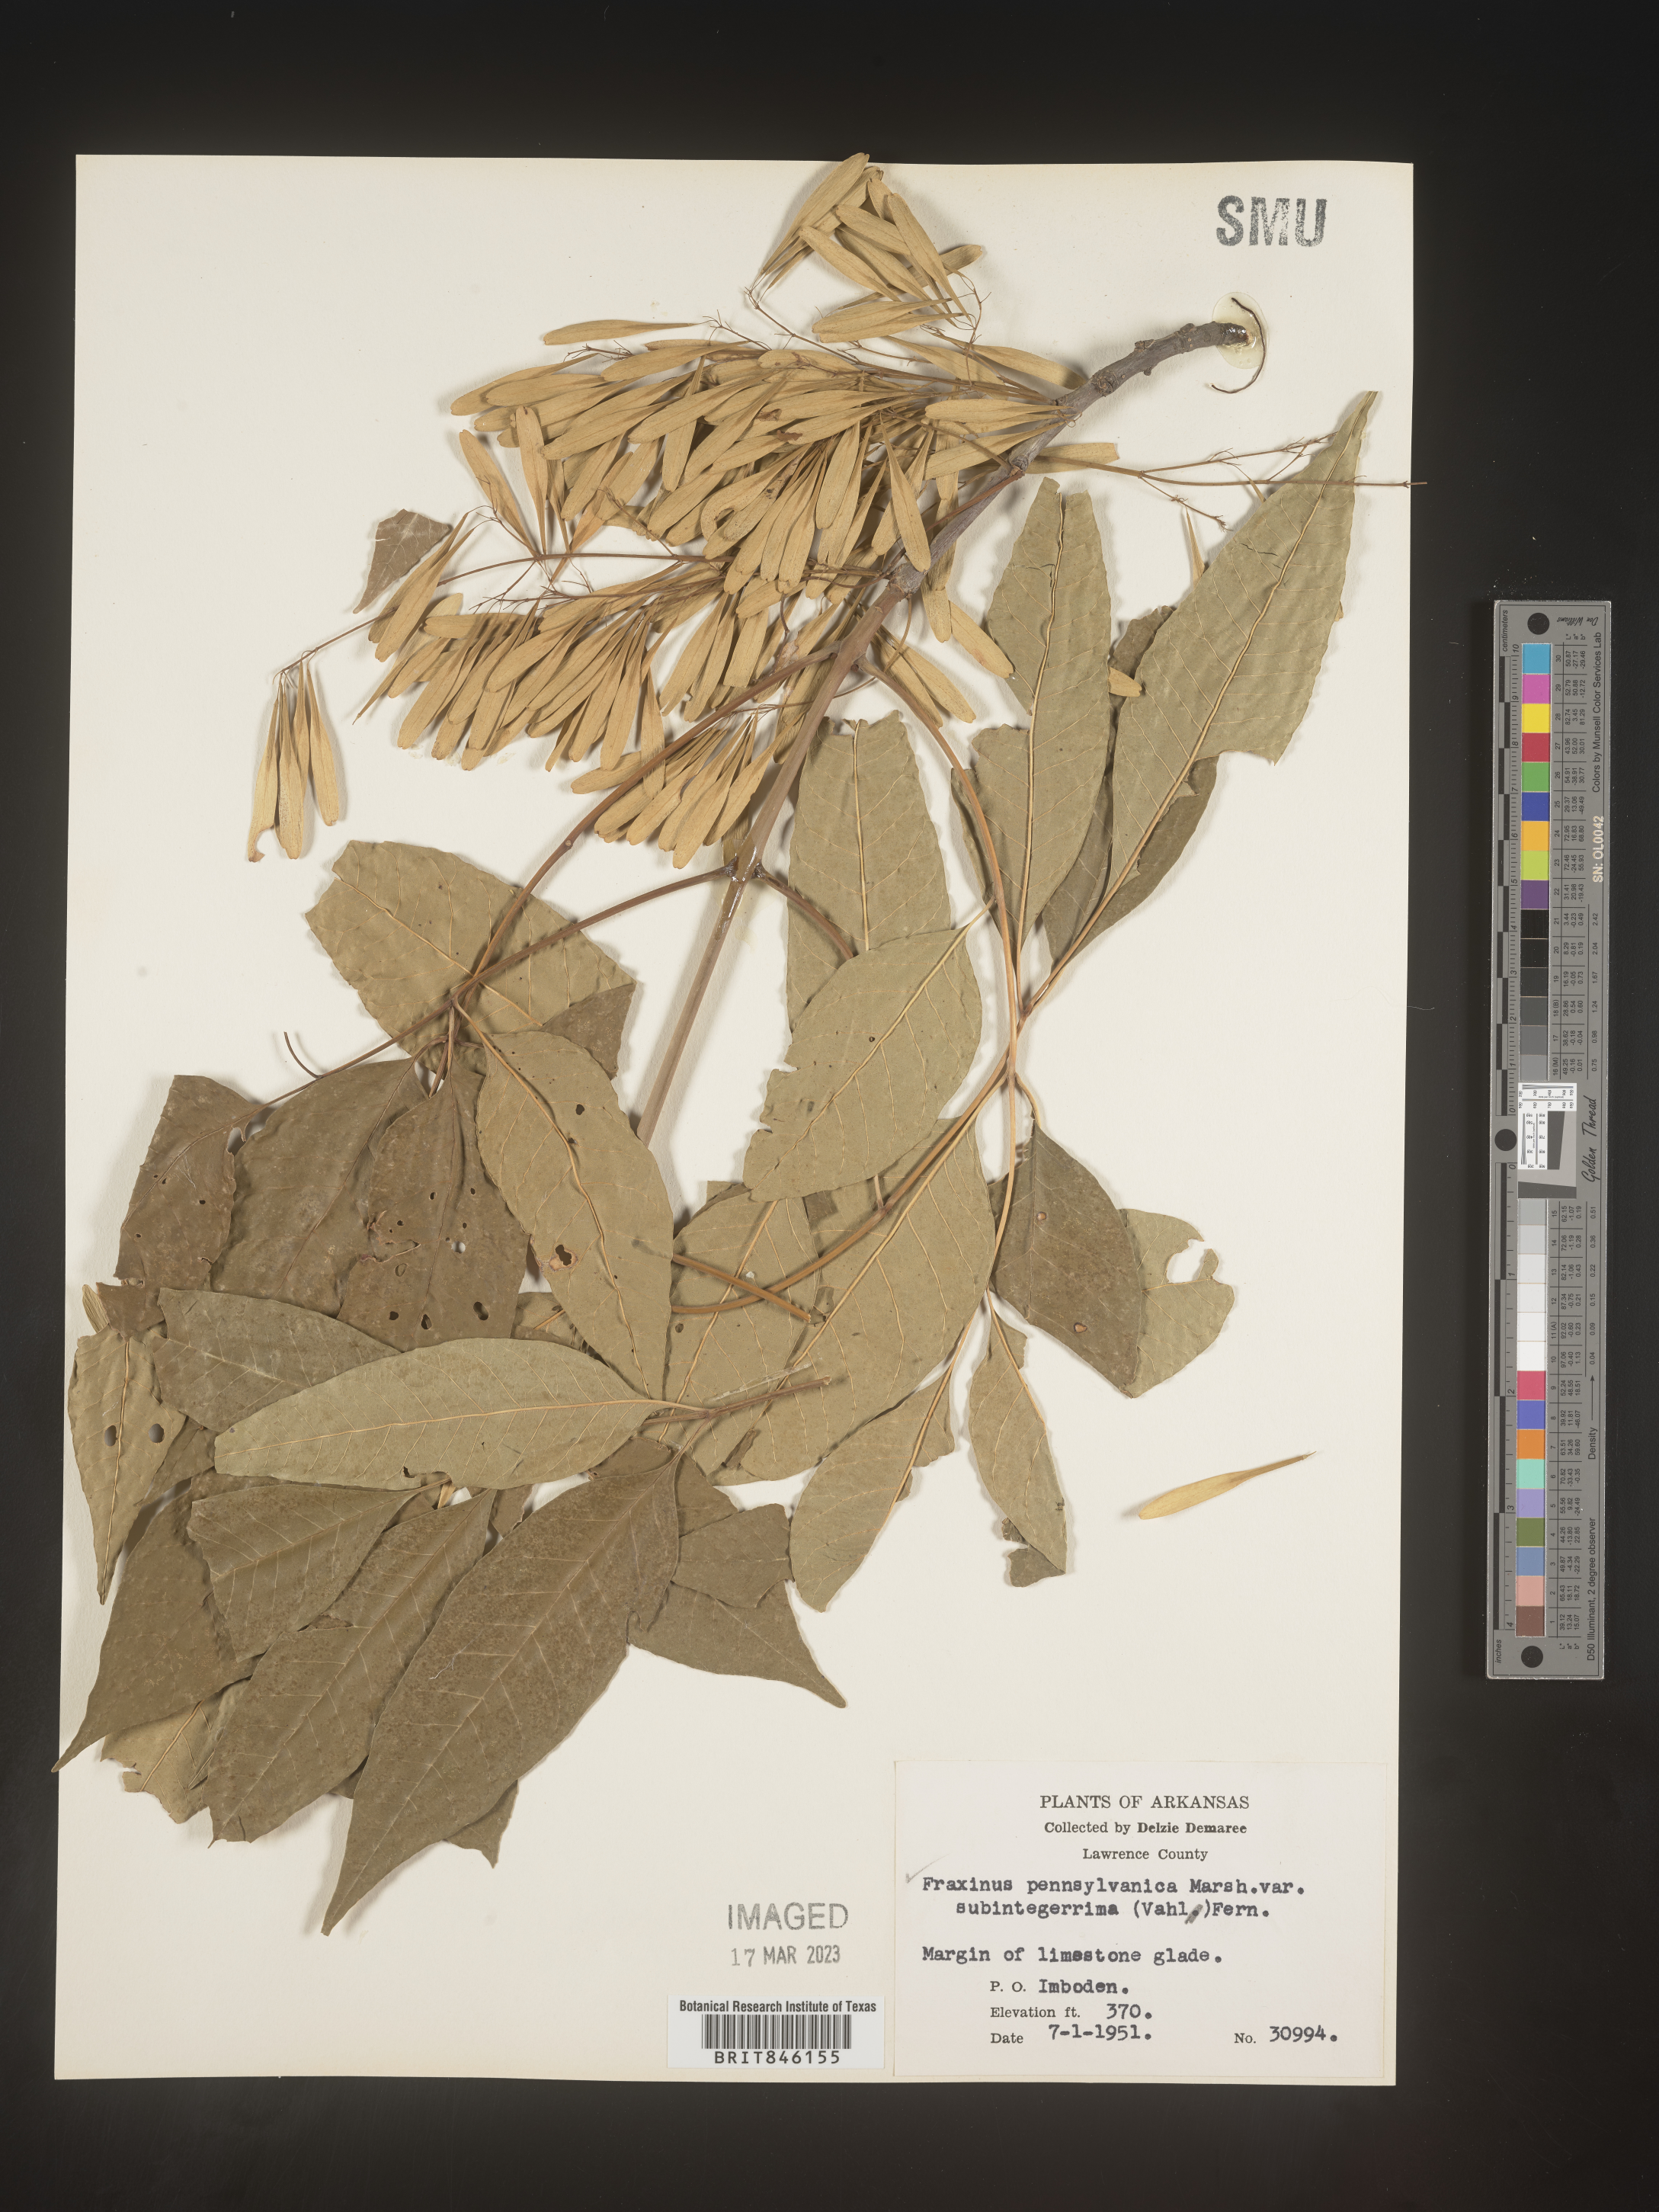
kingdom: Plantae
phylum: Tracheophyta
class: Magnoliopsida
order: Lamiales
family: Oleaceae
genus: Fraxinus
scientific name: Fraxinus pennsylvanica
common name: Green ash
